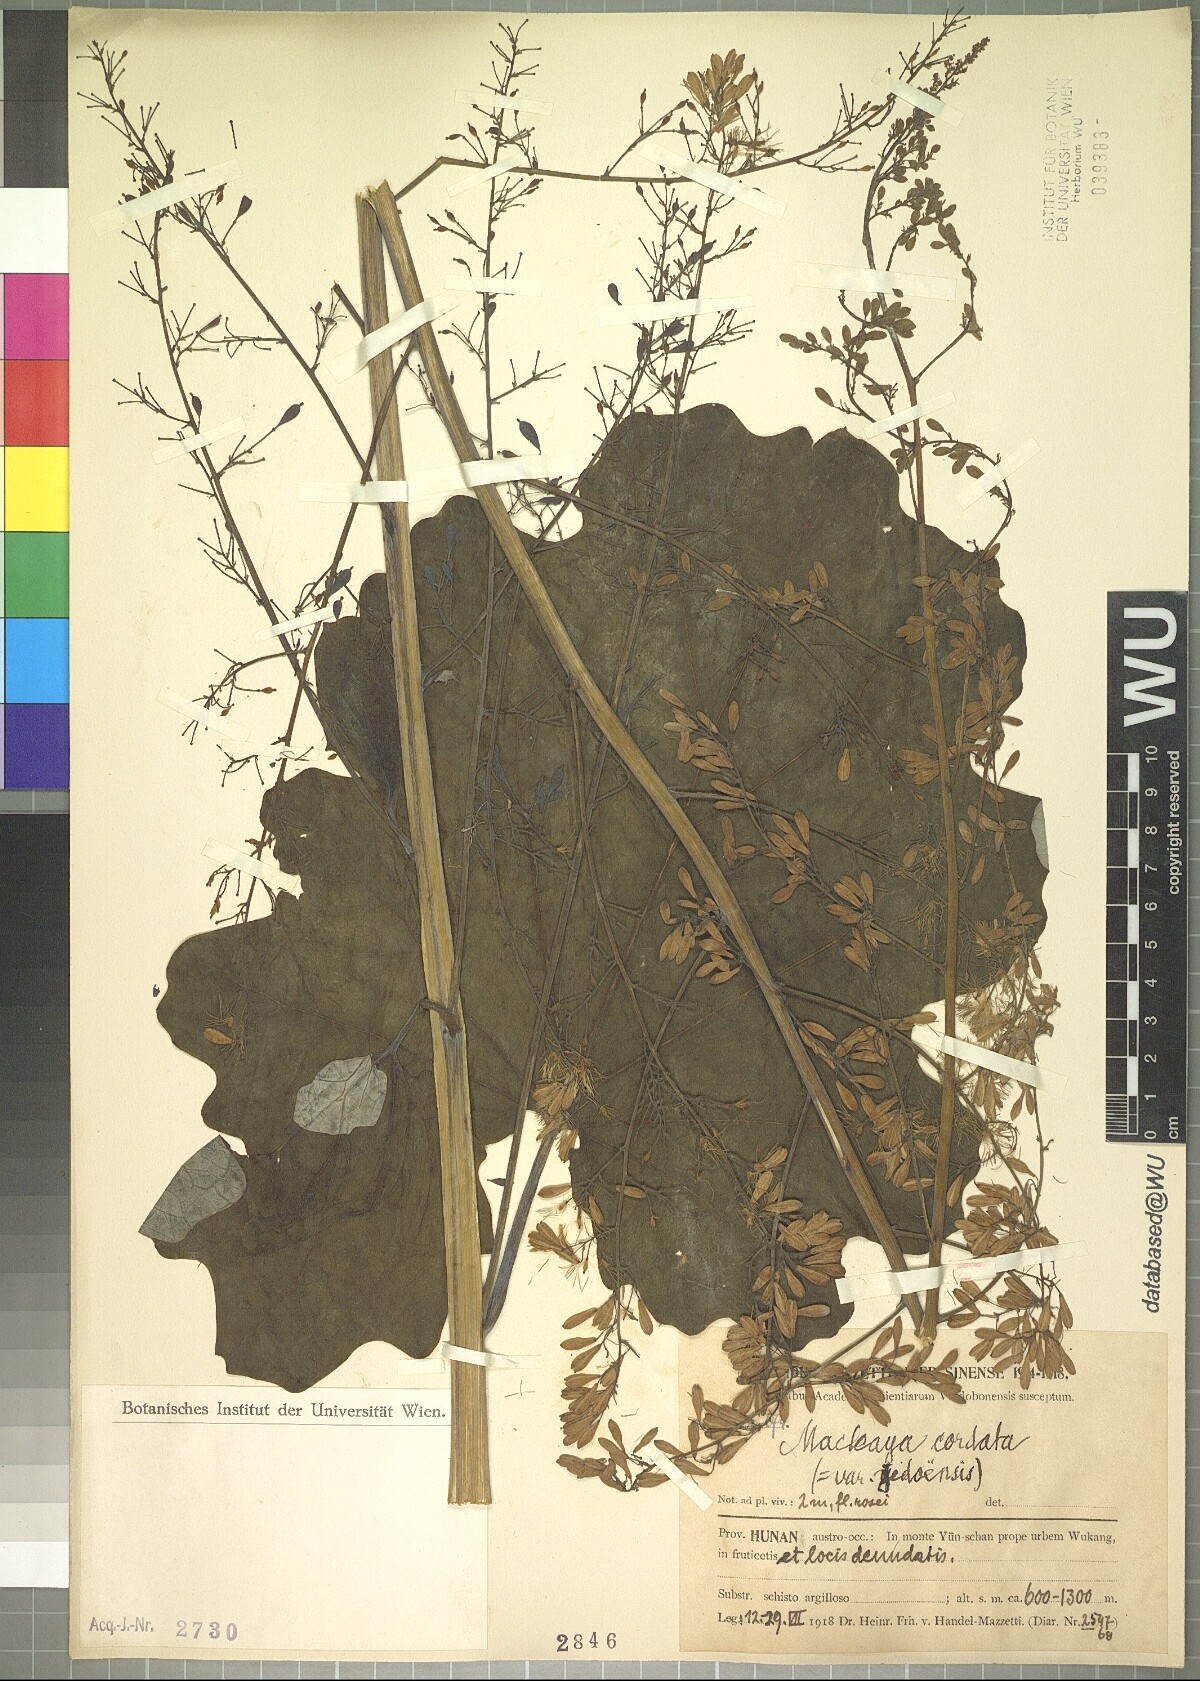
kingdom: Plantae
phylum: Tracheophyta
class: Magnoliopsida
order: Ranunculales
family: Papaveraceae
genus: Macleaya
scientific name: Macleaya cordata
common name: Plume poppy
